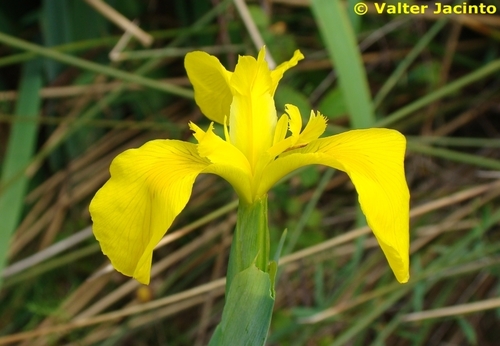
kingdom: Plantae
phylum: Tracheophyta
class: Liliopsida
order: Asparagales
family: Iridaceae
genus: Iris
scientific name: Iris pseudacorus
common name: Yellow flag
